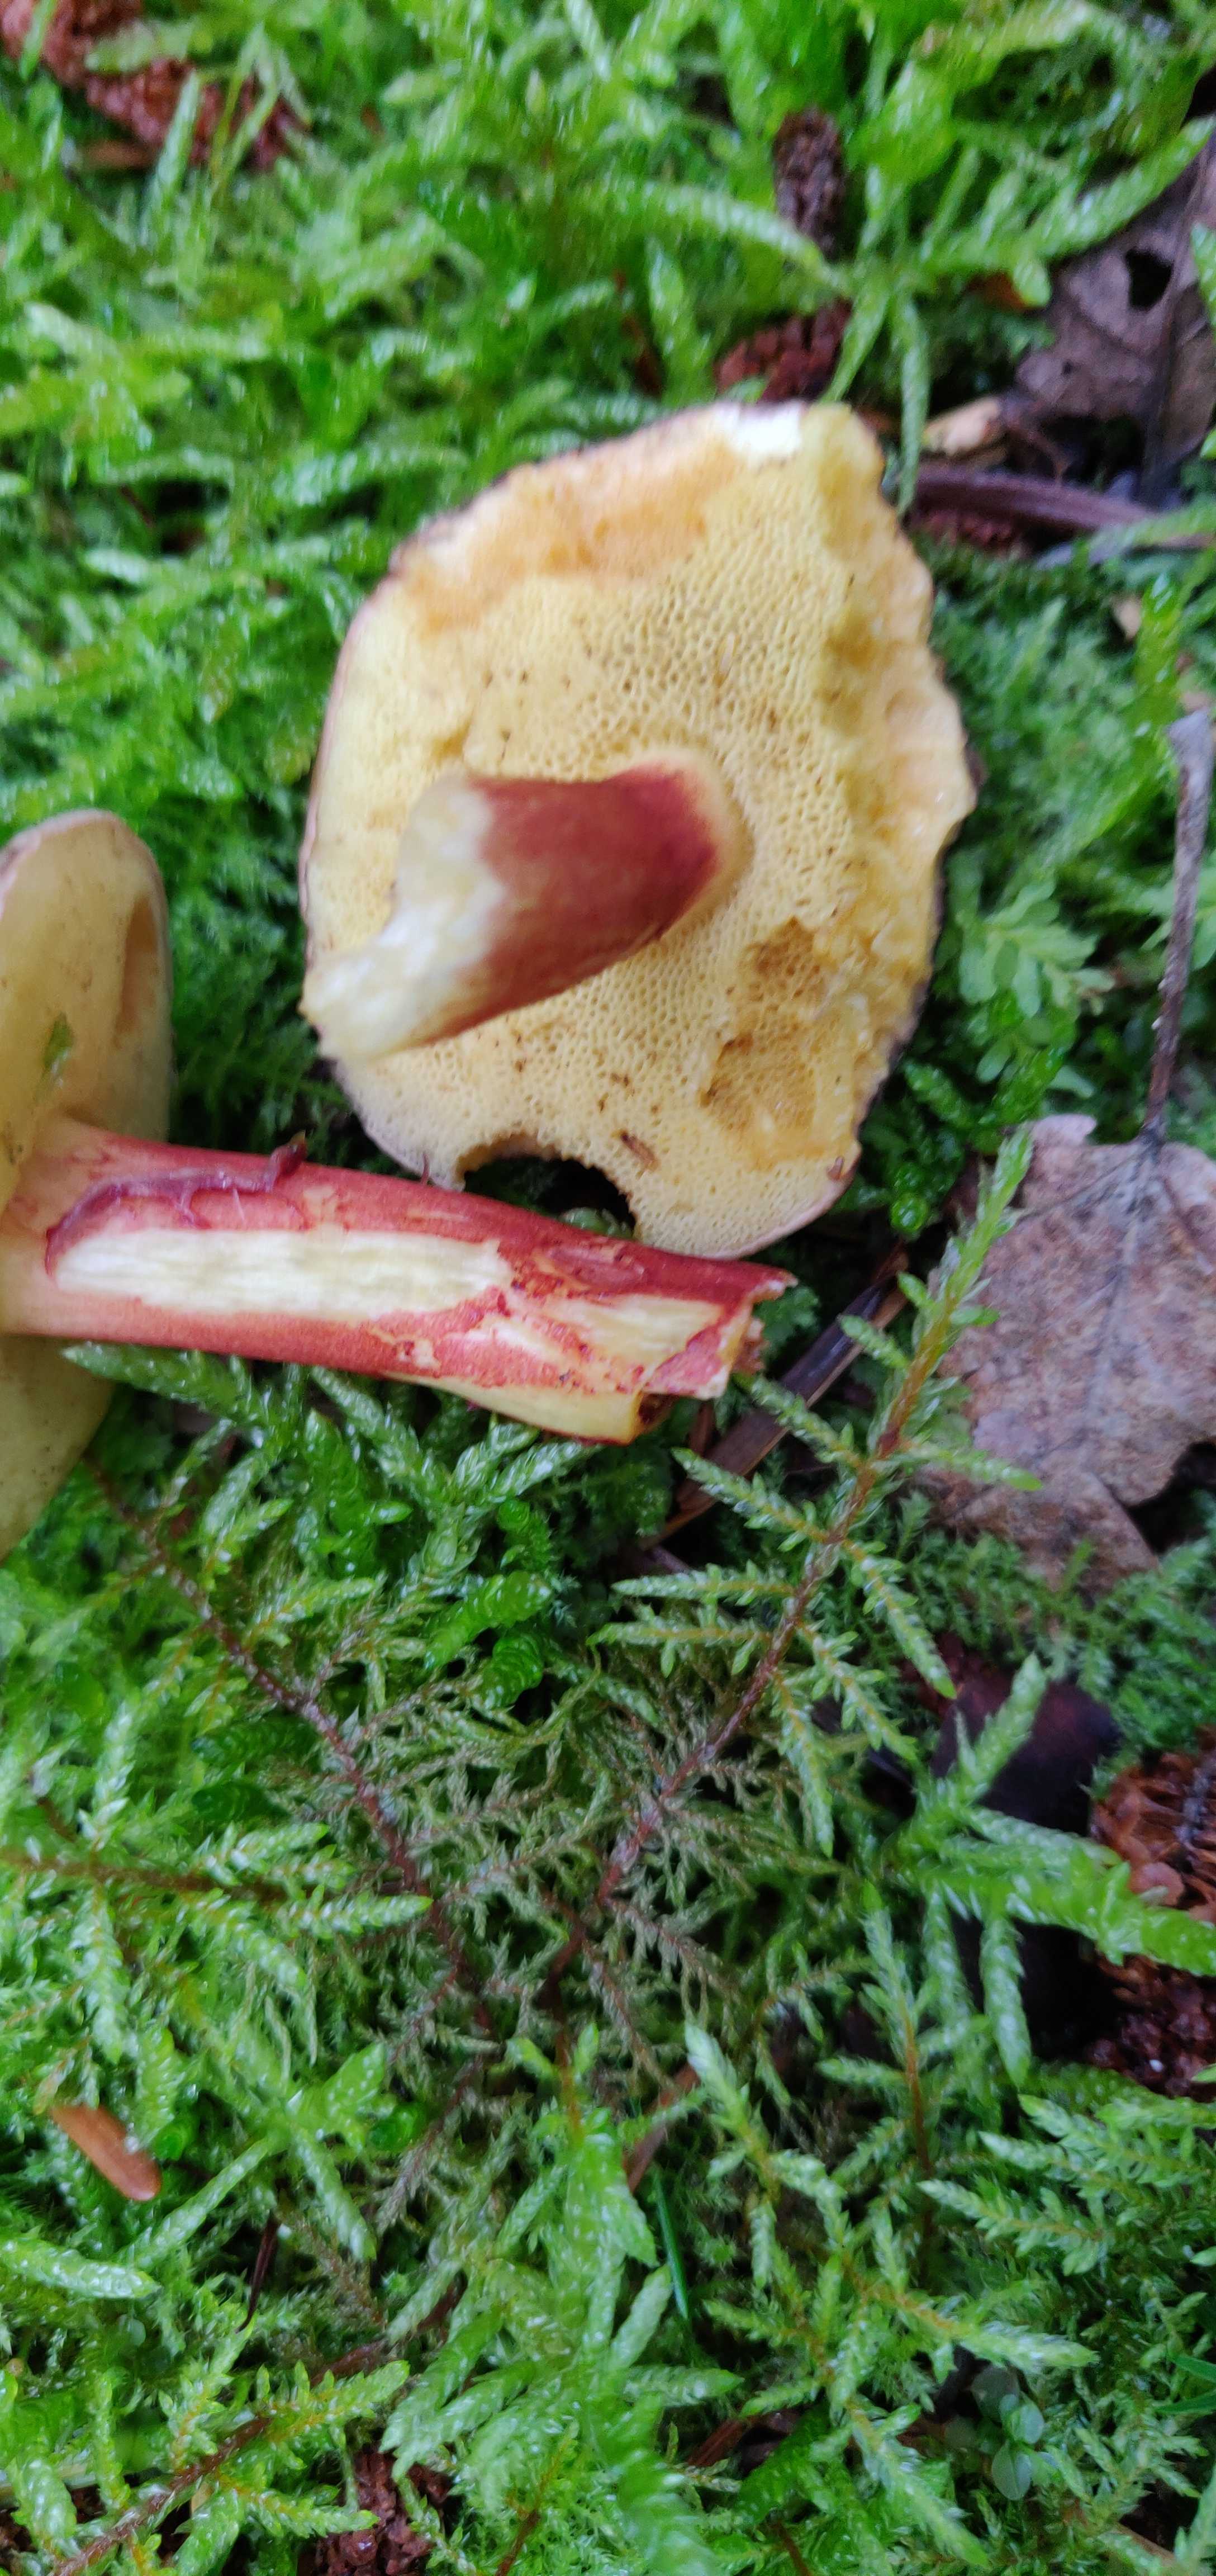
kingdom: Fungi
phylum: Basidiomycota
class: Agaricomycetes
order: Boletales
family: Boletaceae
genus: Xerocomellus
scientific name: Xerocomellus
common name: dværgrørhat
